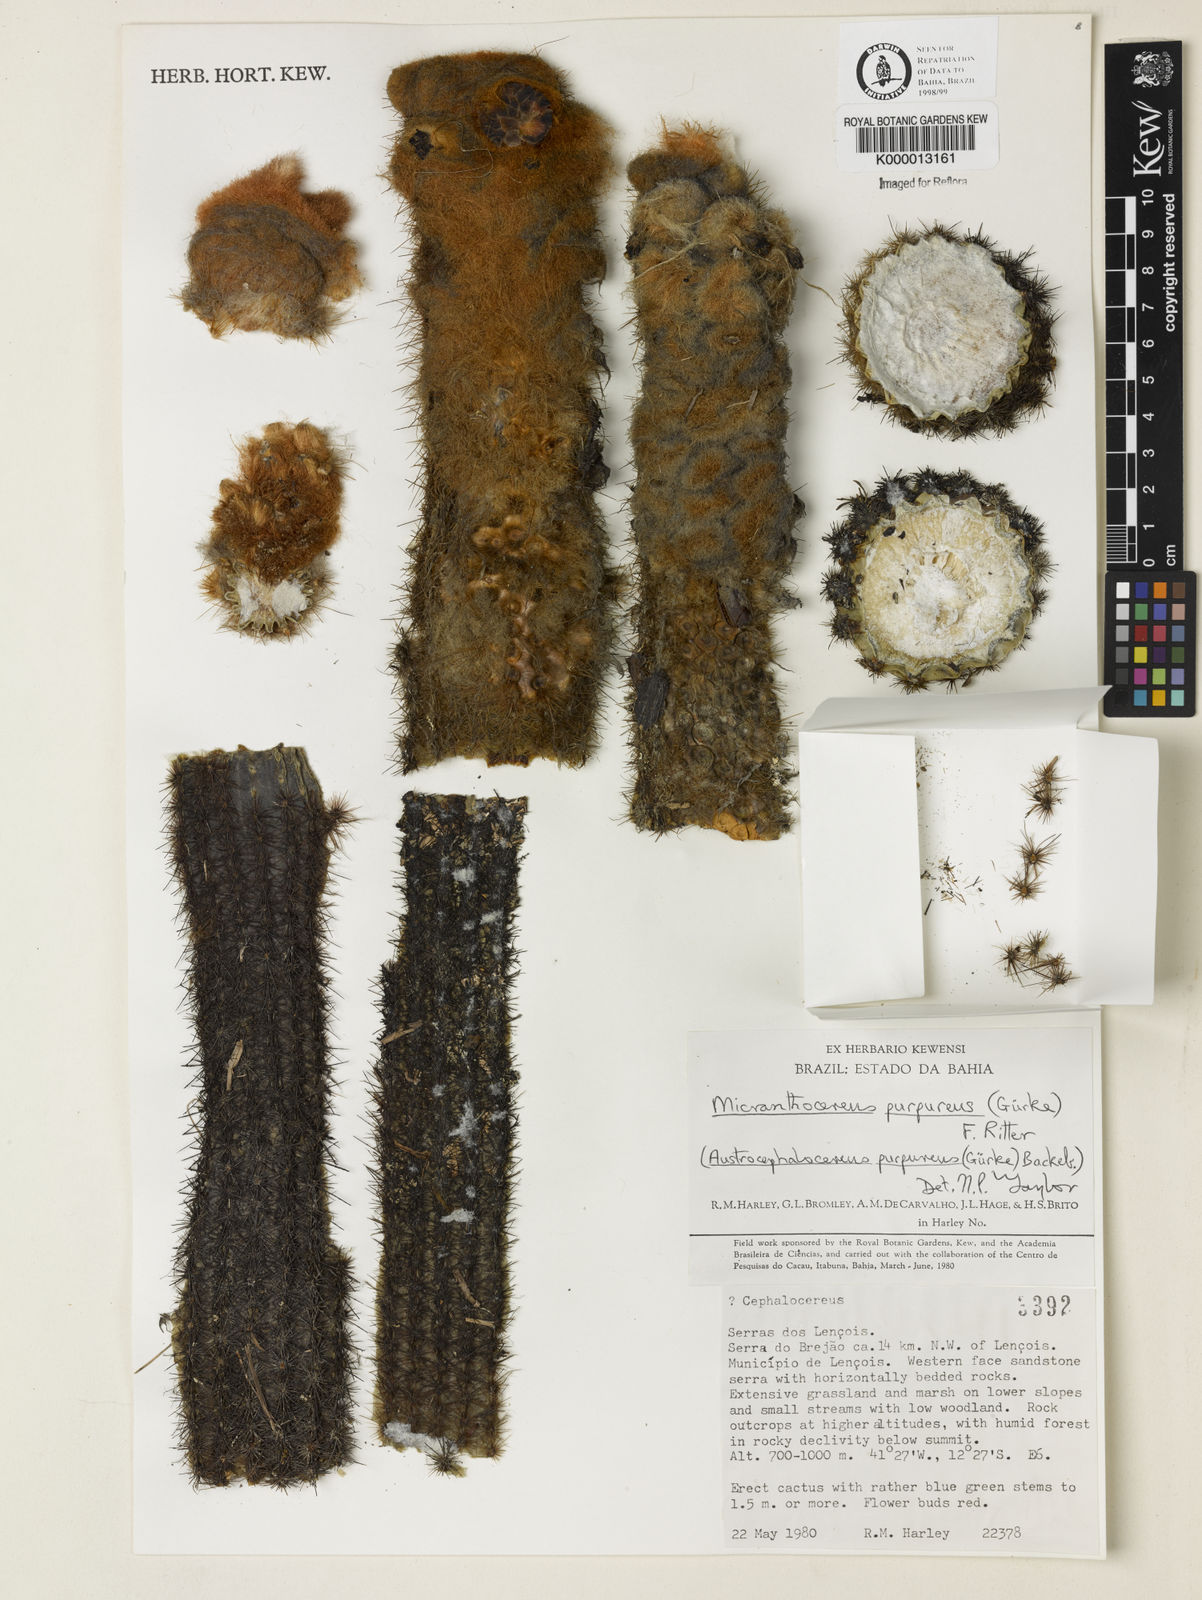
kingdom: Plantae
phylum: Tracheophyta
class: Magnoliopsida
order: Caryophyllales
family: Cactaceae
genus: Micranthocereus
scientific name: Micranthocereus purpureus
